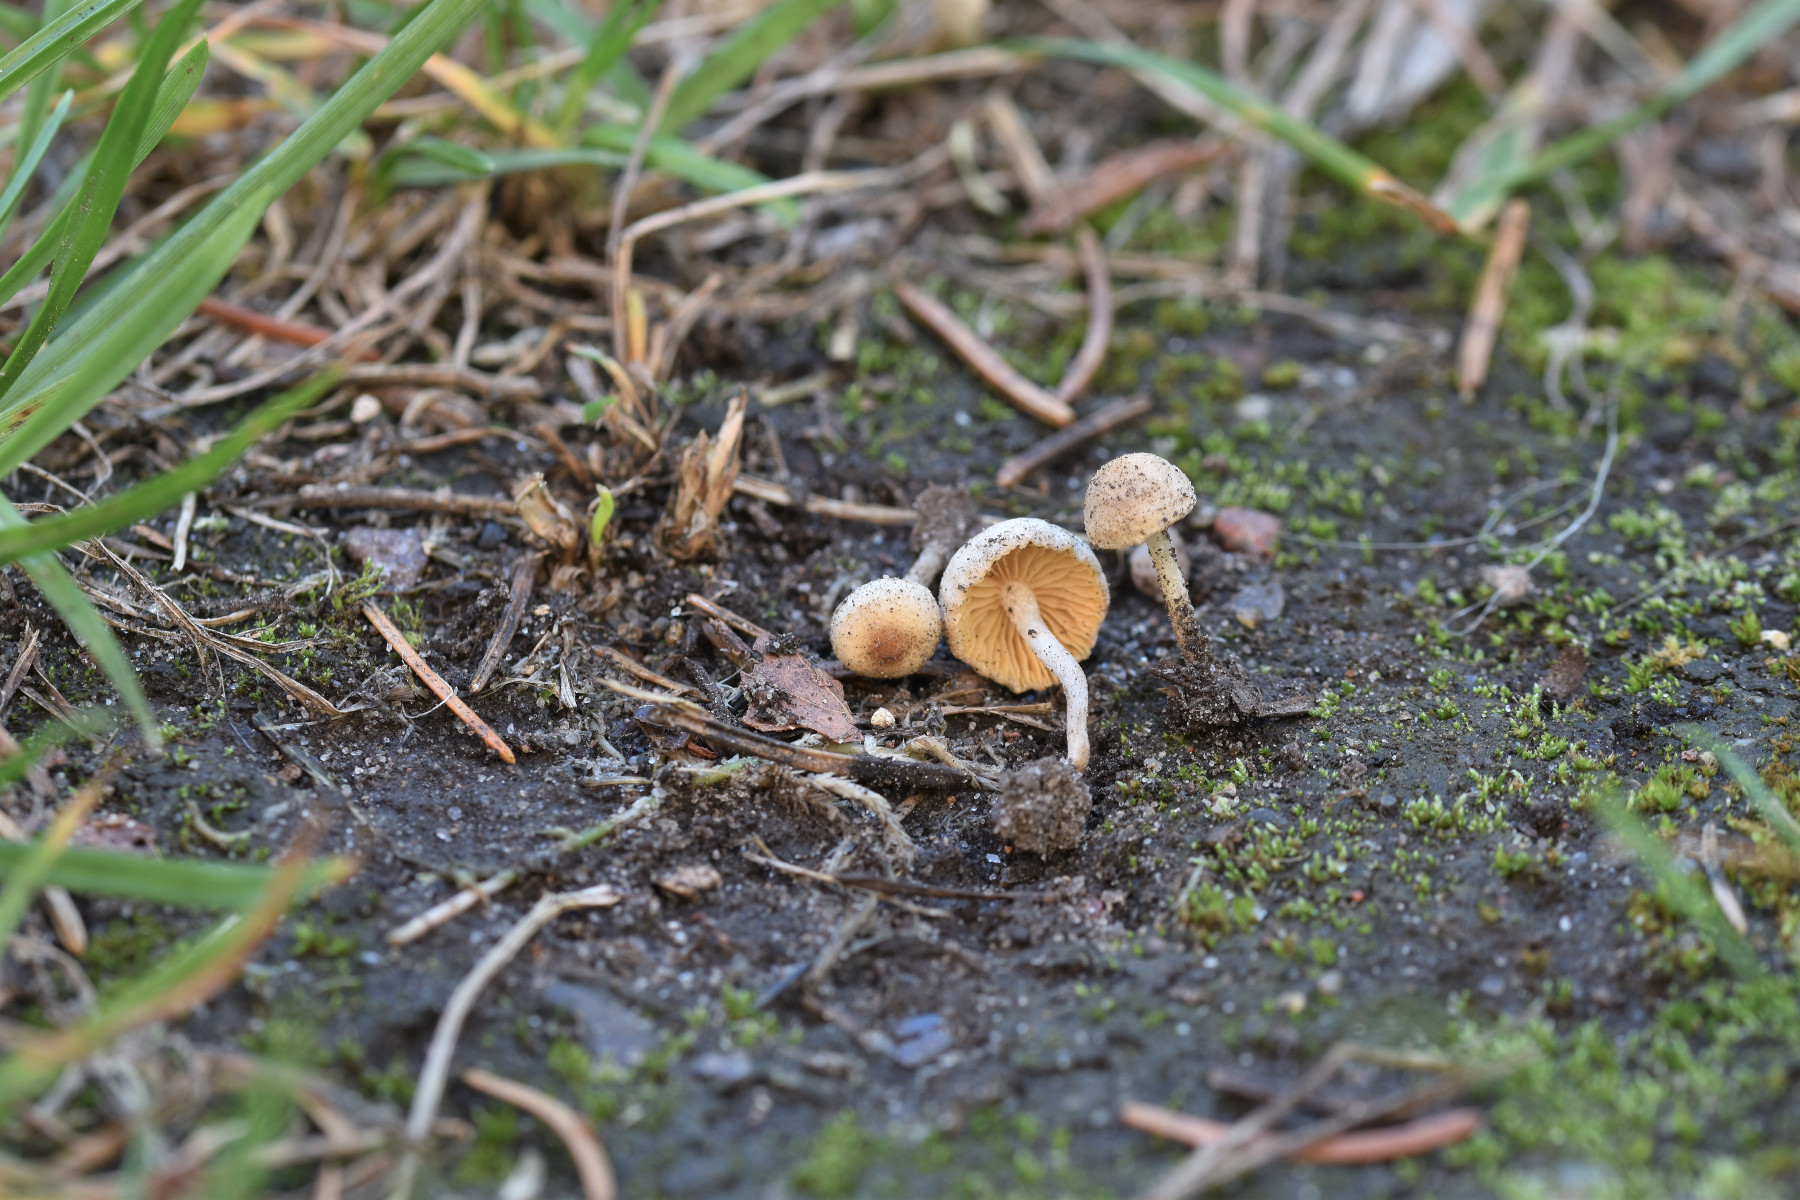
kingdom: Fungi
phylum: Basidiomycota
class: Agaricomycetes
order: Agaricales
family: Tubariaceae
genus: Tubaria
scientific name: Tubaria dispersa
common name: tjørne-fnughat
